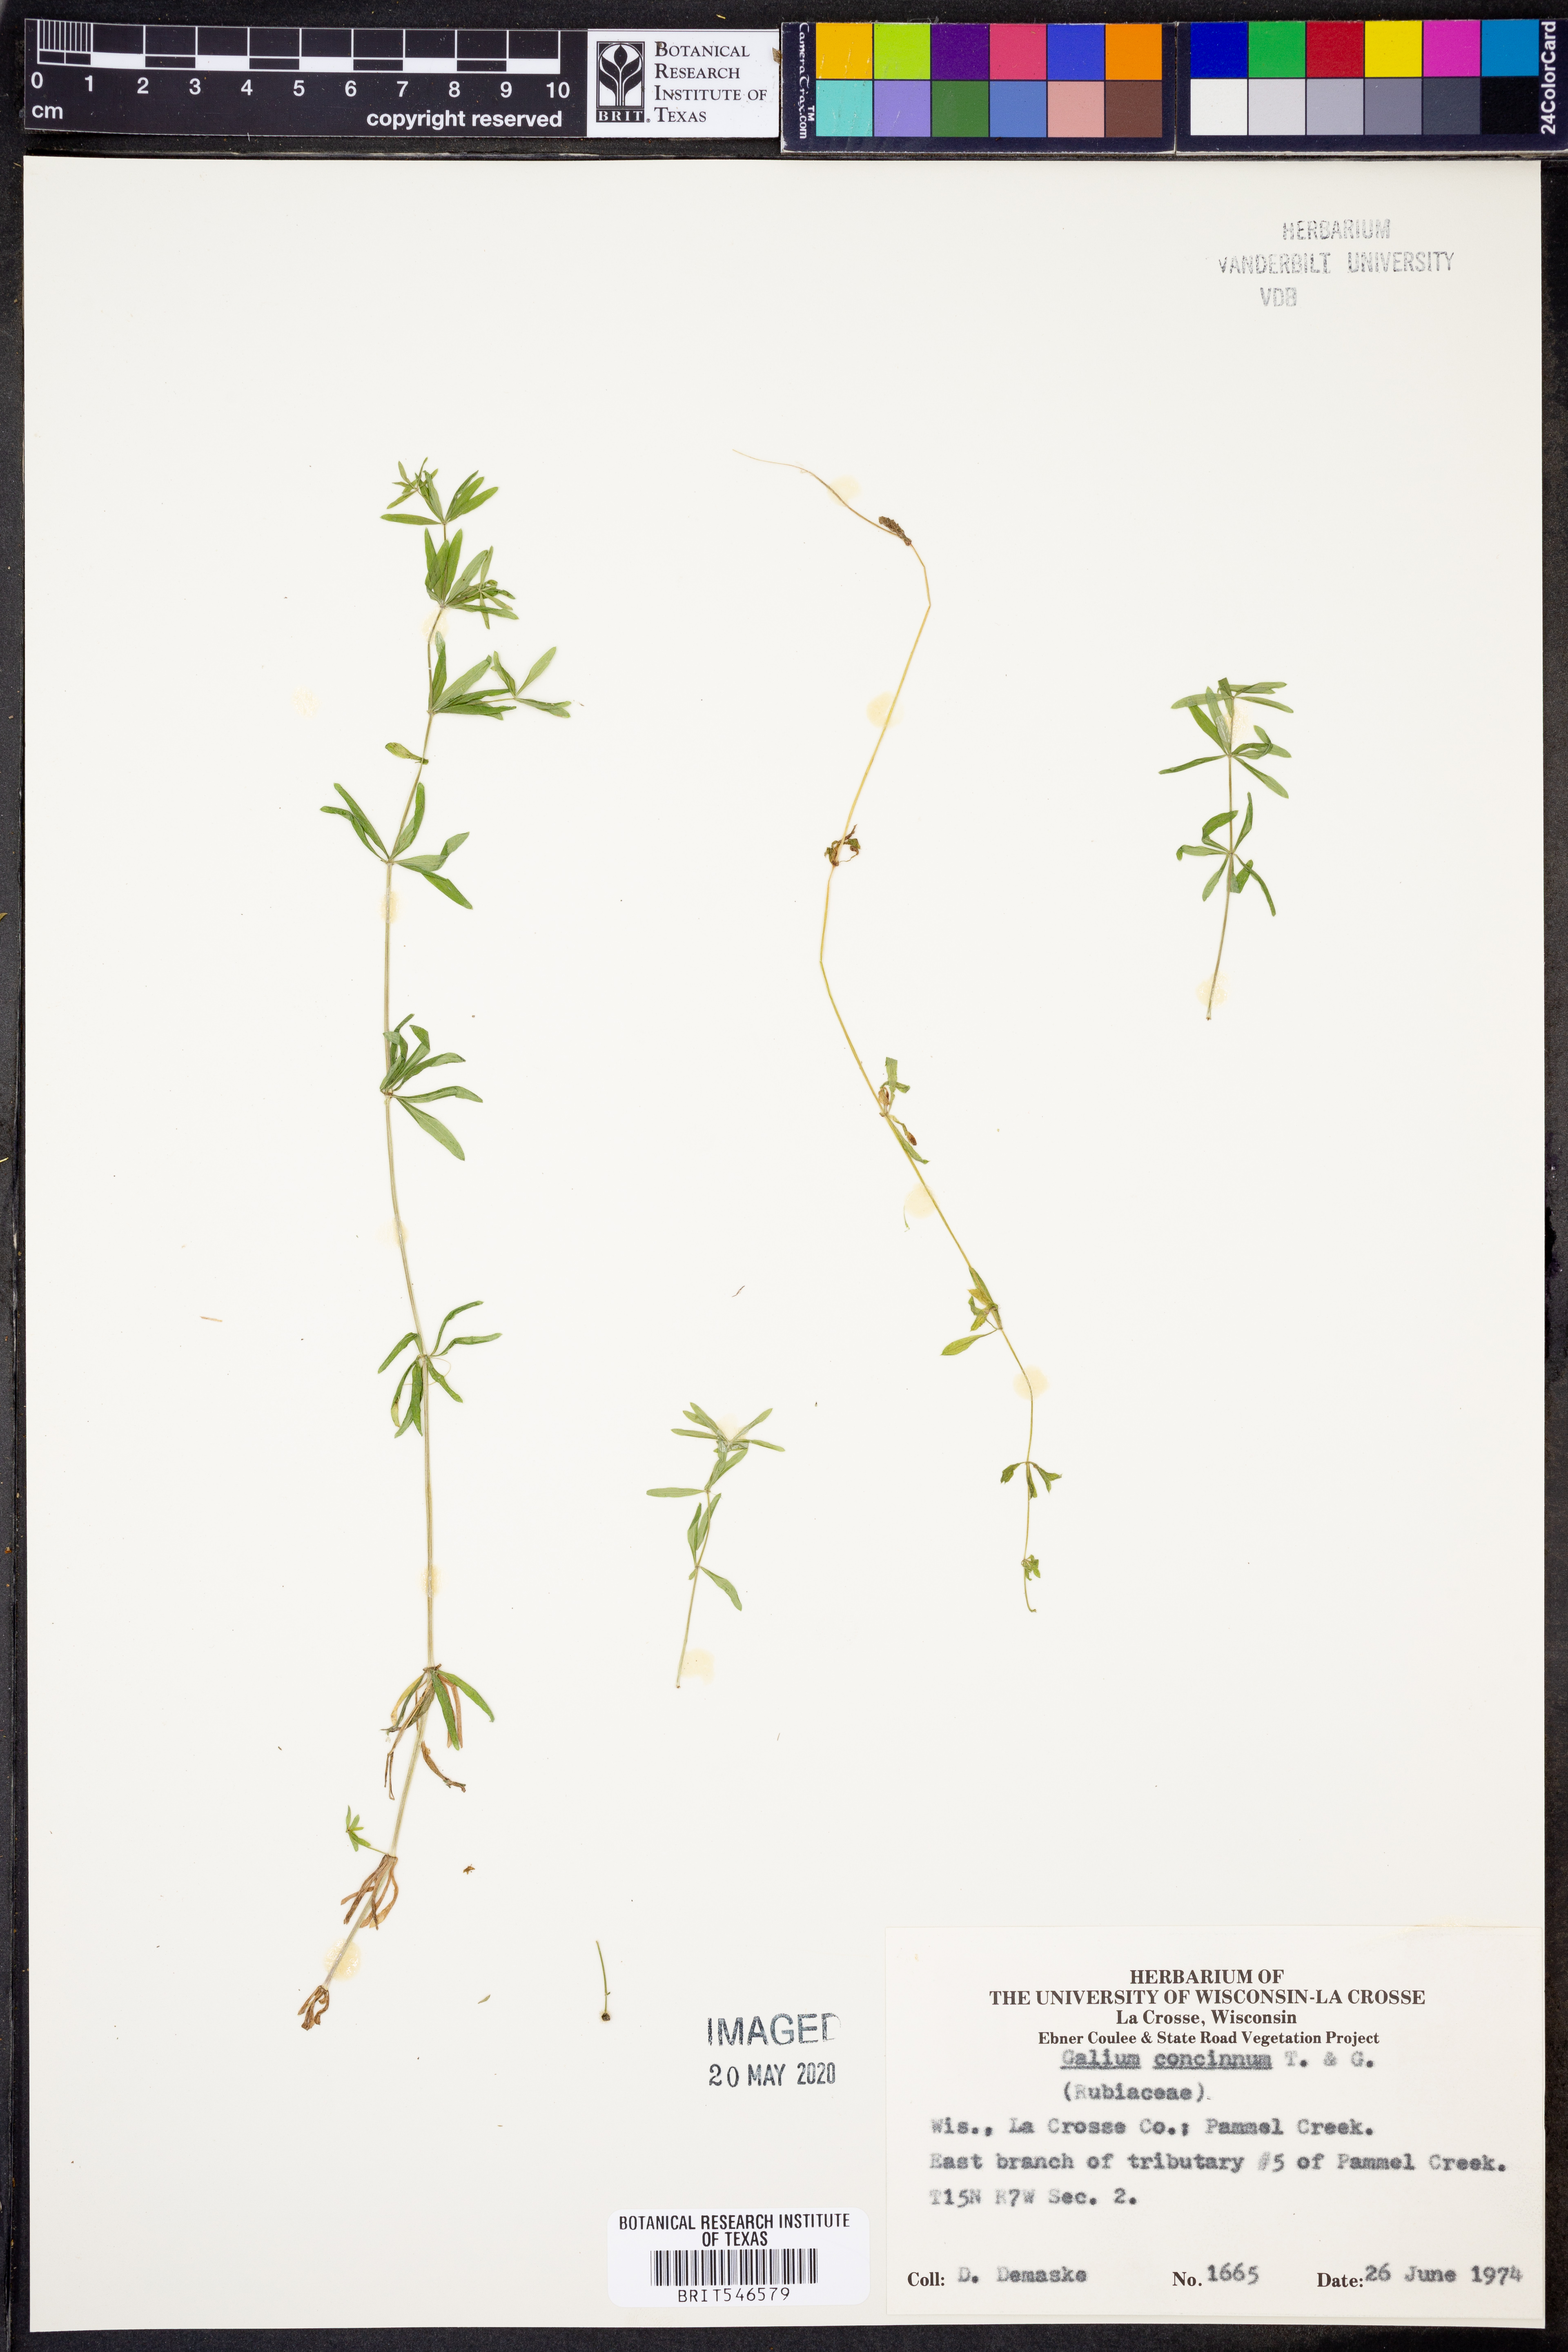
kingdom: Plantae
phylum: Tracheophyta
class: Magnoliopsida
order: Gentianales
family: Rubiaceae
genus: Galium
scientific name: Galium concinnum
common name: Shining bedstraw
